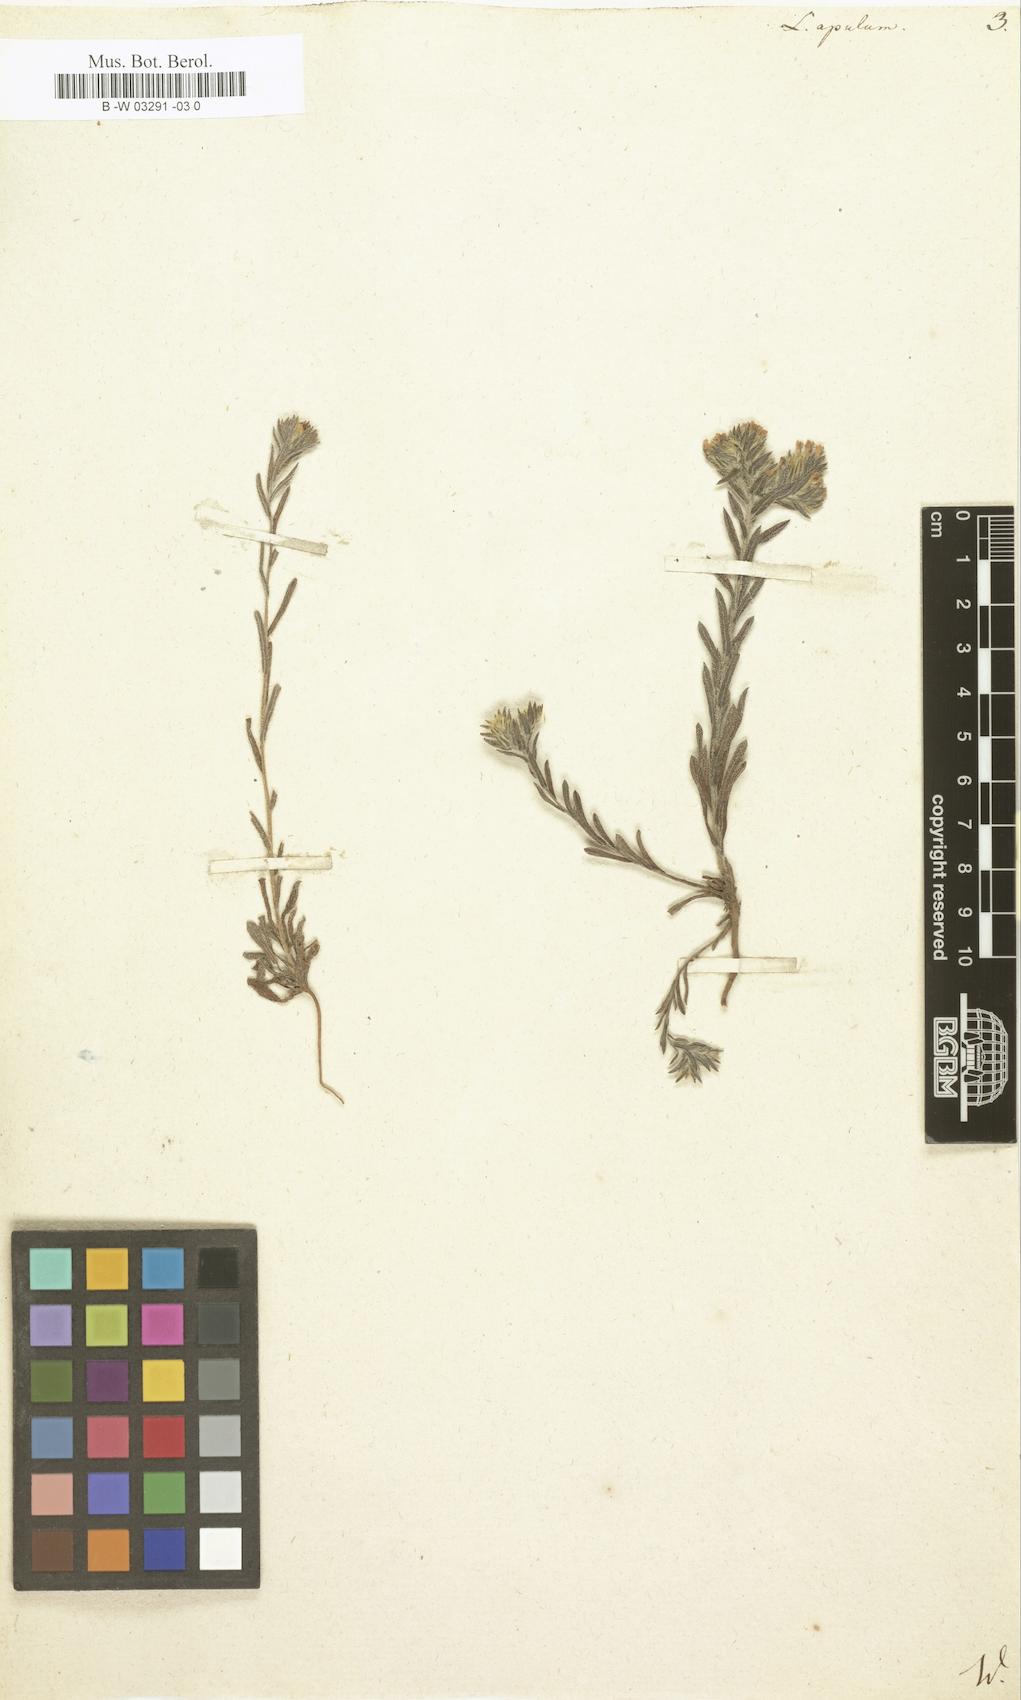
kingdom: Plantae
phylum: Tracheophyta
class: Magnoliopsida
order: Boraginales
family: Boraginaceae
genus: Neatostema
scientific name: Neatostema apulum
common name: Hairy sheepweed
